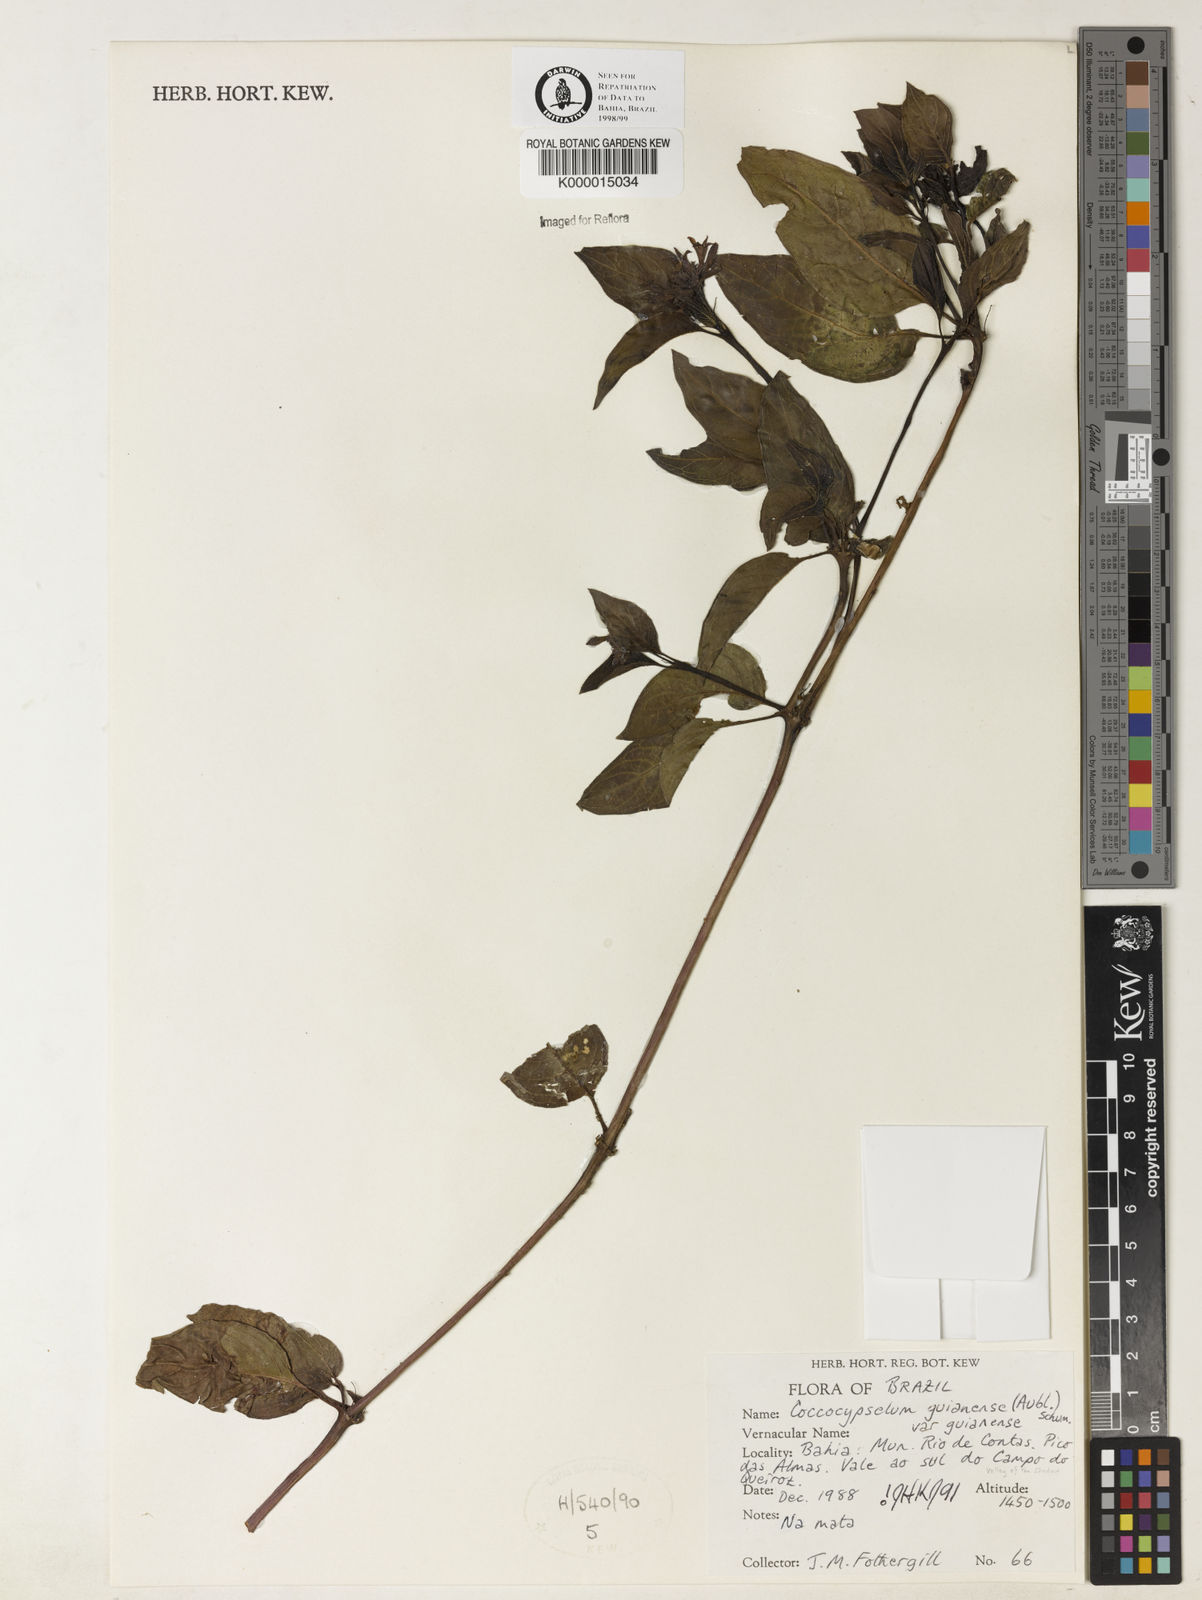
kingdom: Plantae
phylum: Tracheophyta
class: Magnoliopsida
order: Gentianales
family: Rubiaceae
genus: Coccocypselum
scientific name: Coccocypselum guianense
